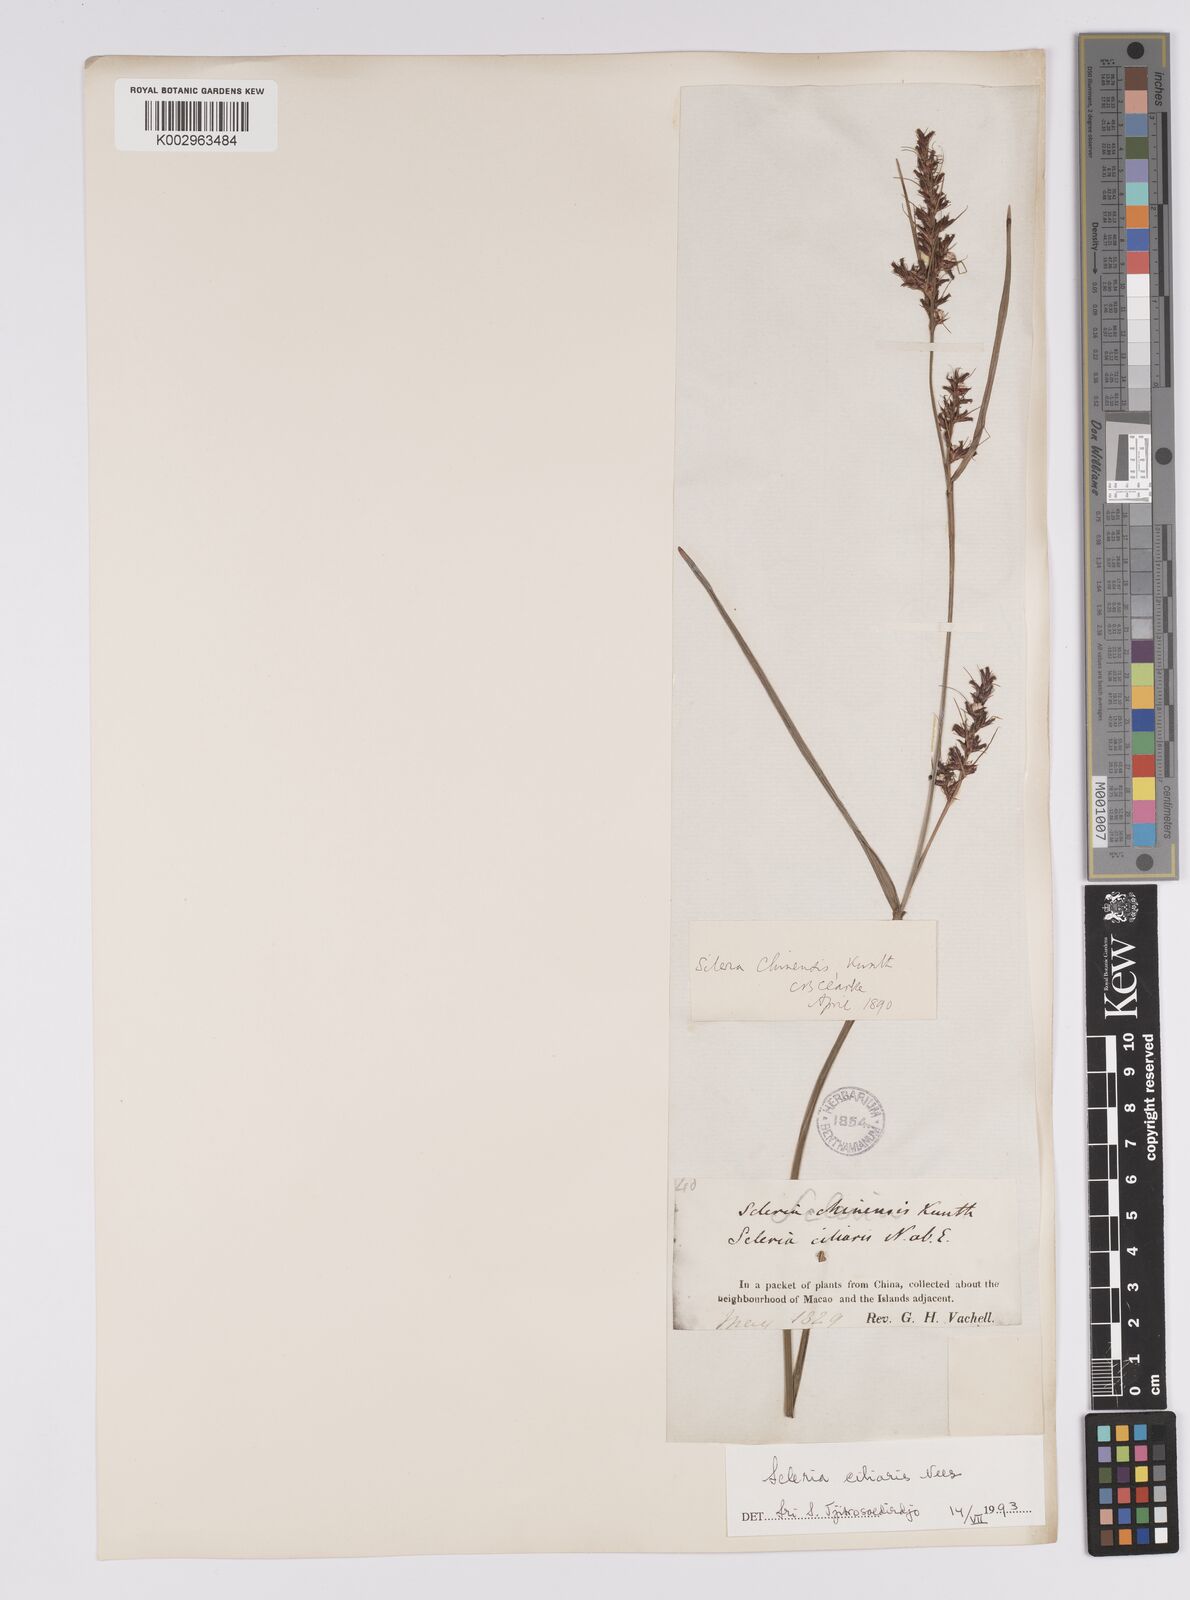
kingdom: Plantae
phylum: Tracheophyta
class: Liliopsida
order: Poales
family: Cyperaceae
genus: Scleria
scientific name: Scleria ciliaris
